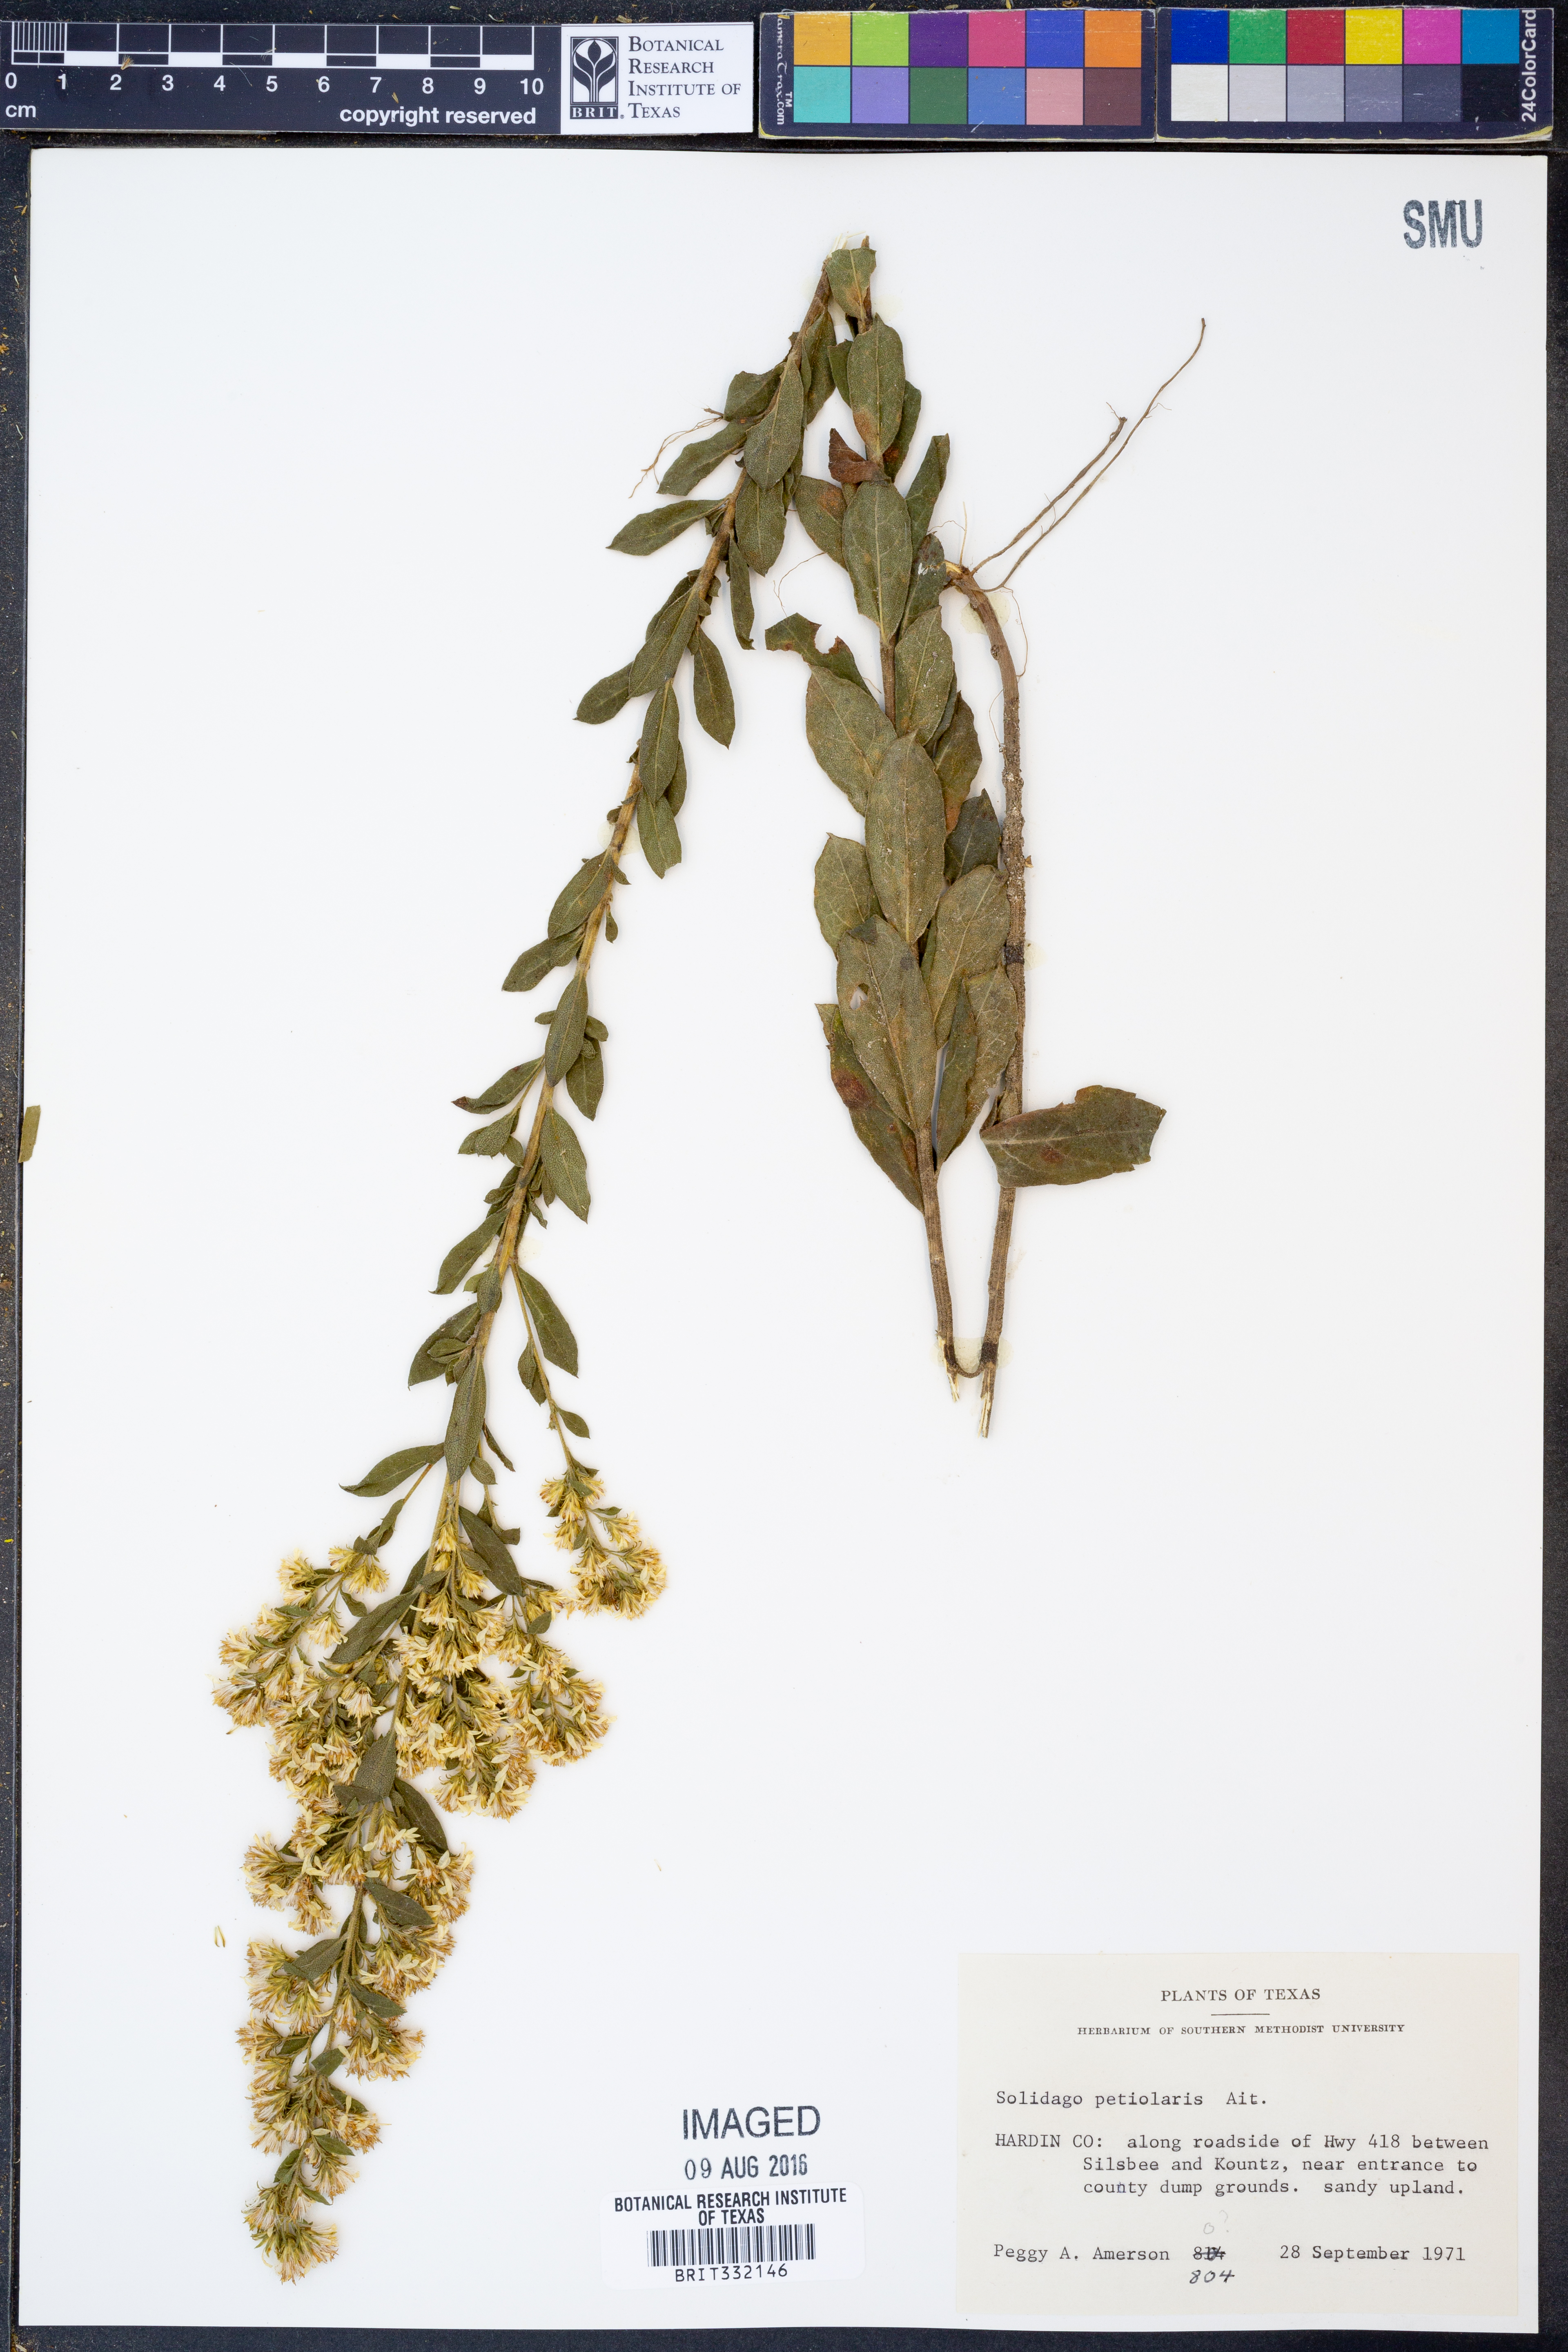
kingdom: Plantae
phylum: Tracheophyta
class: Magnoliopsida
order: Asterales
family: Asteraceae
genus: Solidago
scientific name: Solidago petiolaris
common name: Downy ragged goldenrod
